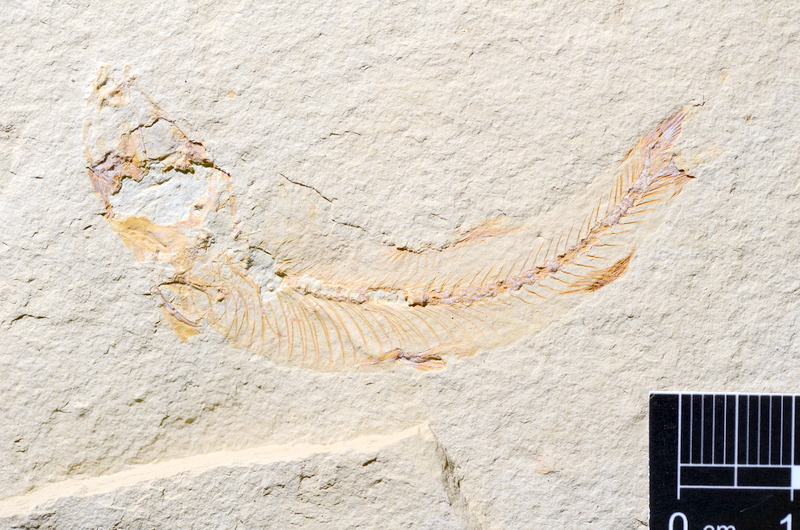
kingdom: Animalia
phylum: Chordata
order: Salmoniformes
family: Orthogonikleithridae
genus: Leptolepides
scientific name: Leptolepides
